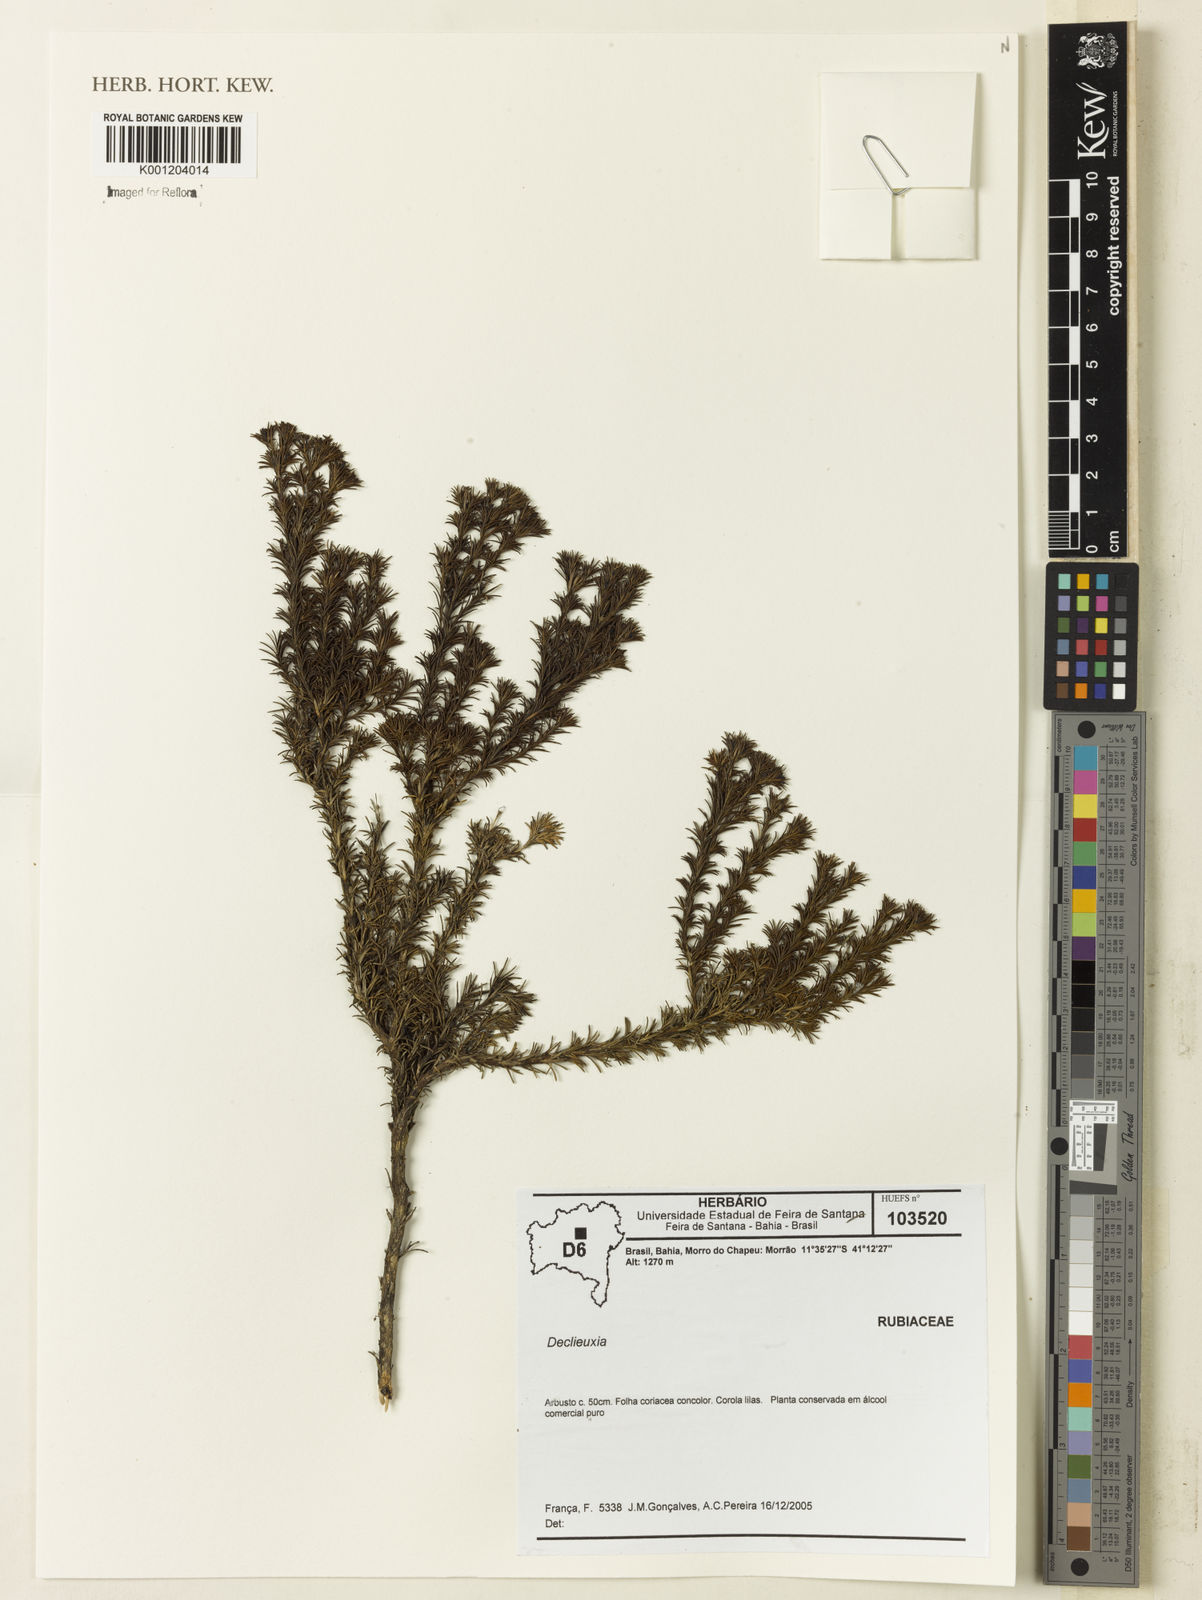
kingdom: Plantae
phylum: Tracheophyta
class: Magnoliopsida
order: Gentianales
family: Rubiaceae
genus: Declieuxia
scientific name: Declieuxia
